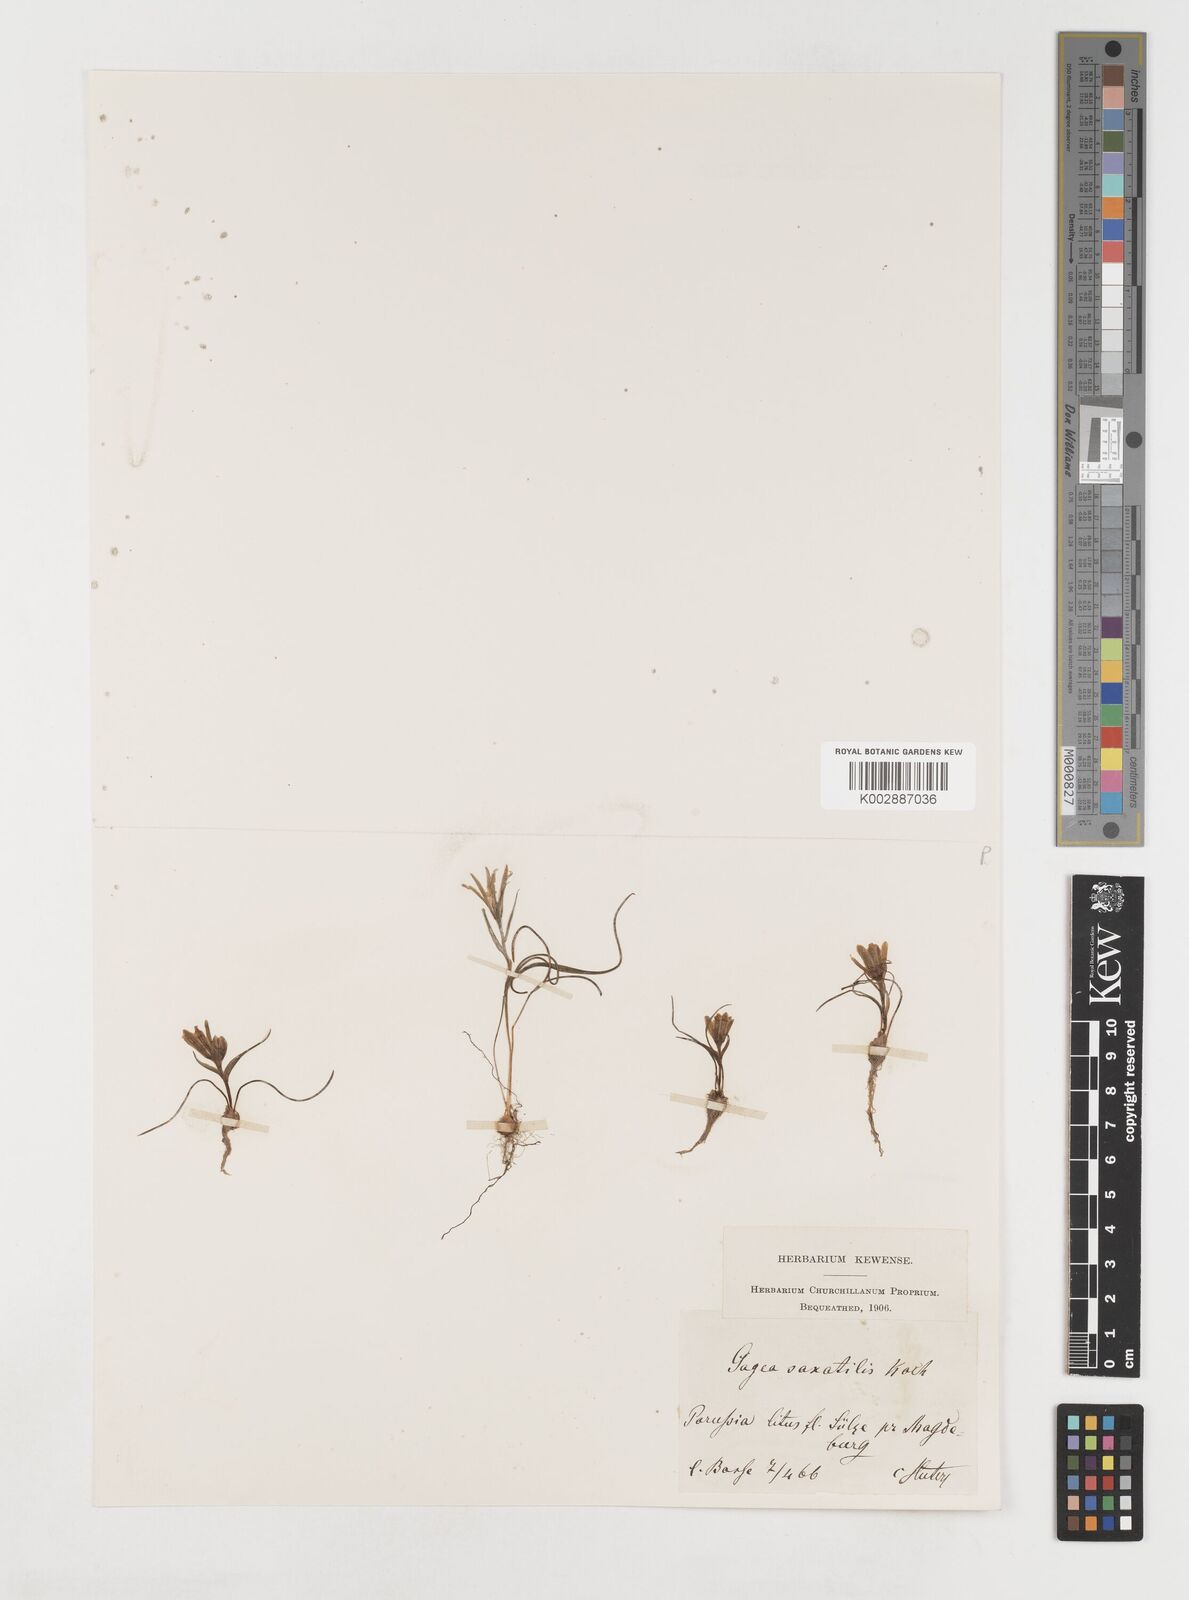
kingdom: Plantae
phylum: Tracheophyta
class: Liliopsida
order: Liliales
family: Liliaceae
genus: Gagea
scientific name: Gagea bohemica
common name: Early star-of-bethlehem
